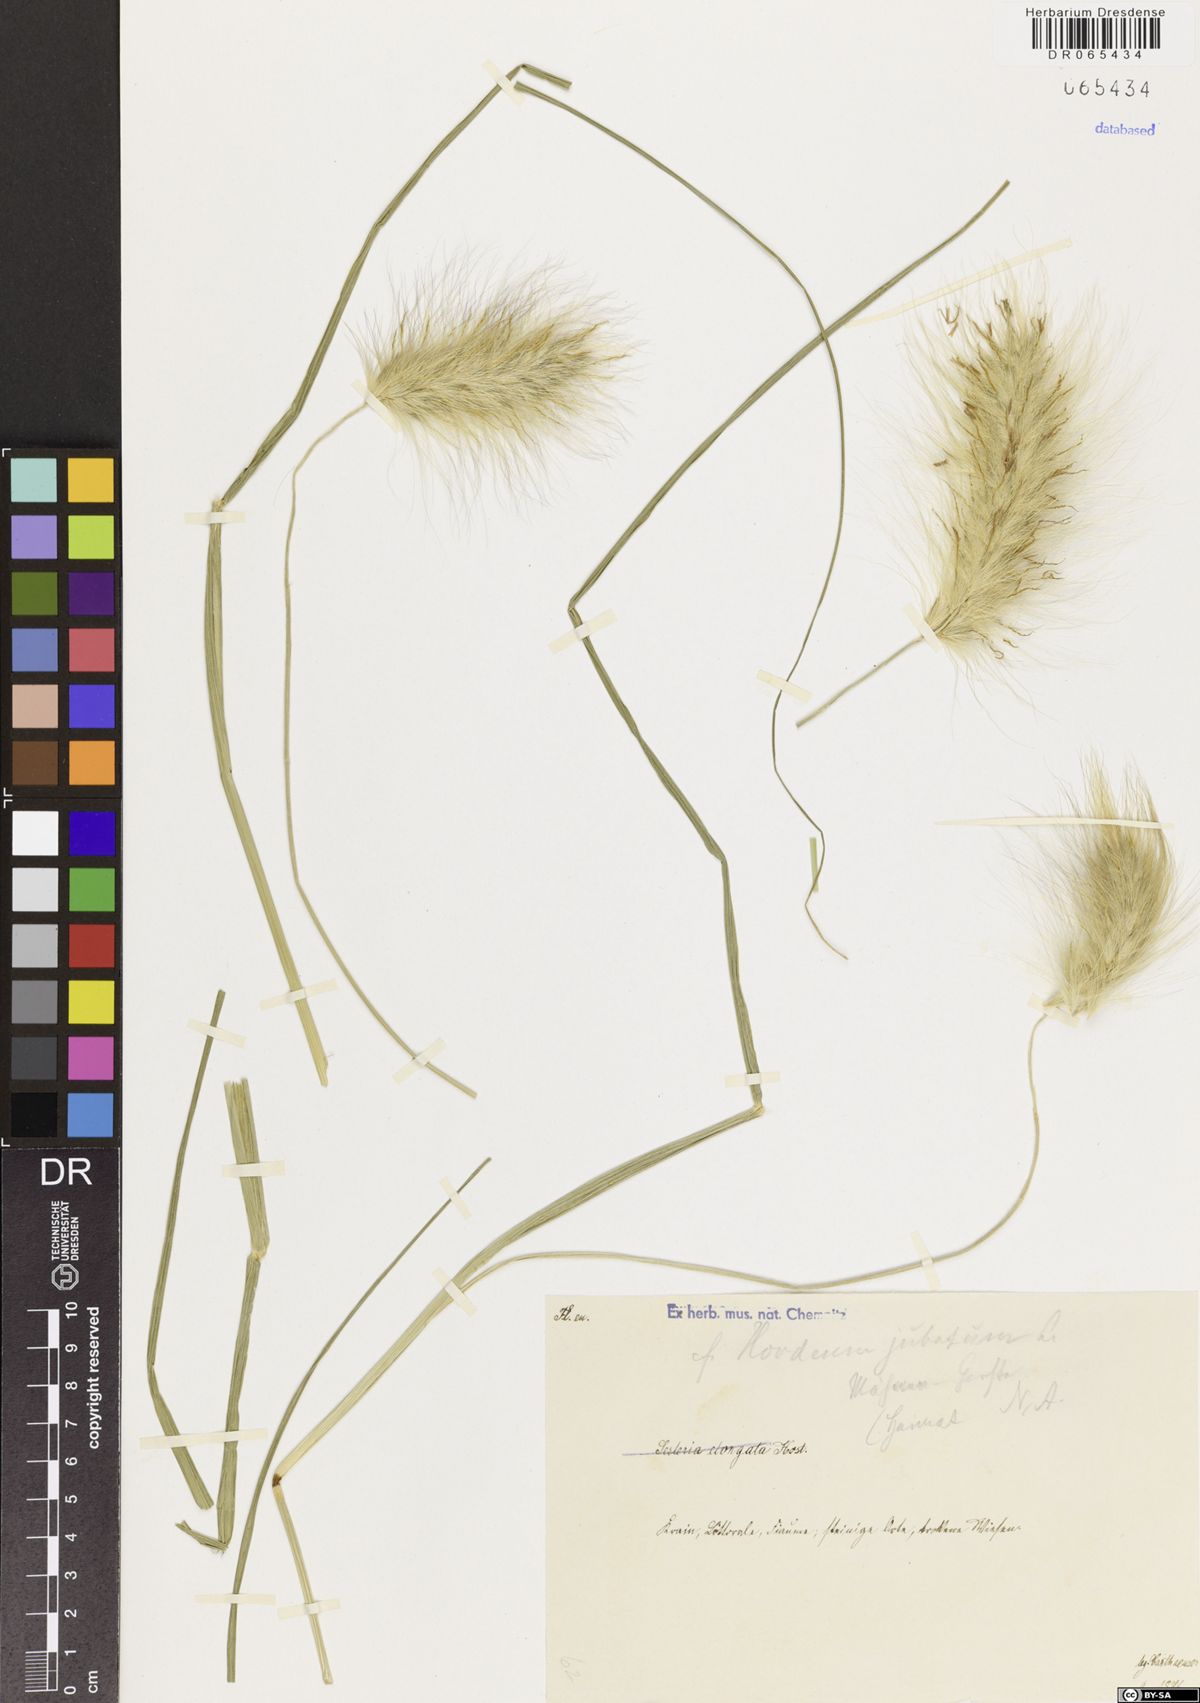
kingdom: Plantae
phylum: Tracheophyta
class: Liliopsida
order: Poales
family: Poaceae
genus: Hordeum
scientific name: Hordeum jubatum
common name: Foxtail barley
